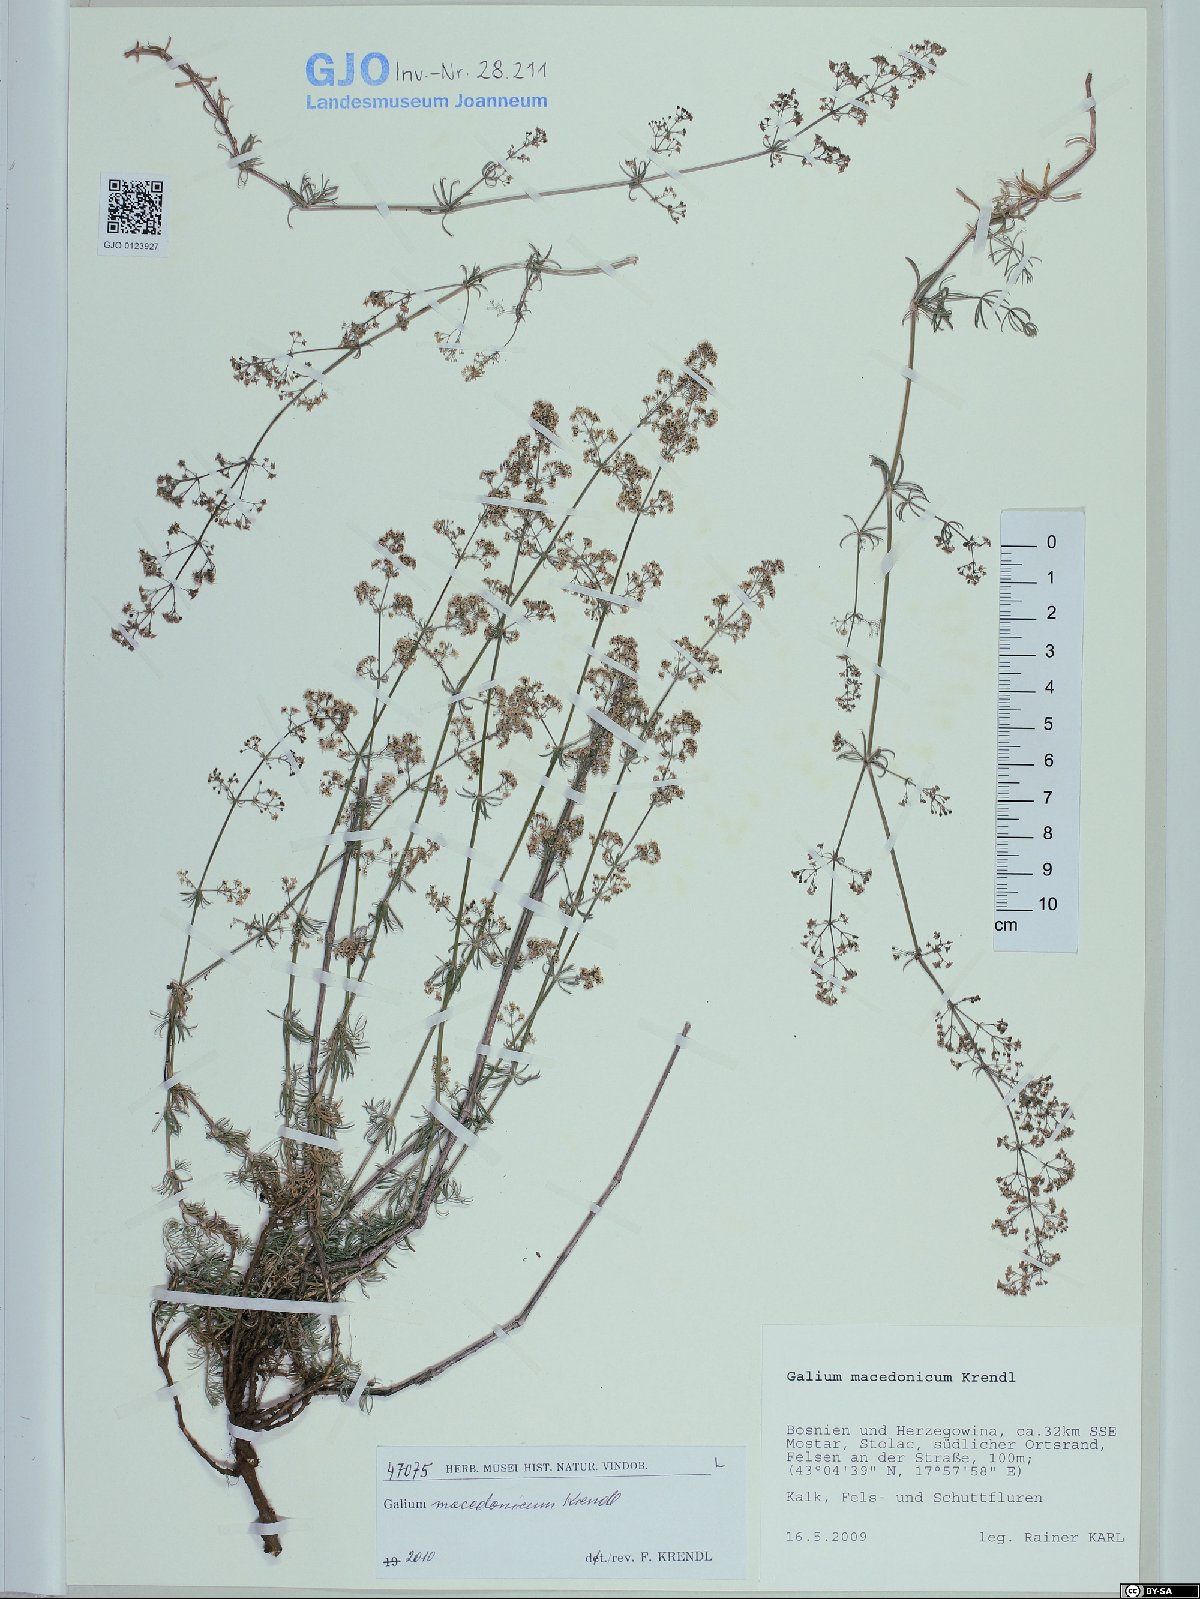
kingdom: Plantae
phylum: Tracheophyta
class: Magnoliopsida
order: Gentianales
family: Rubiaceae
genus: Galium
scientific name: Galium macedonicum
